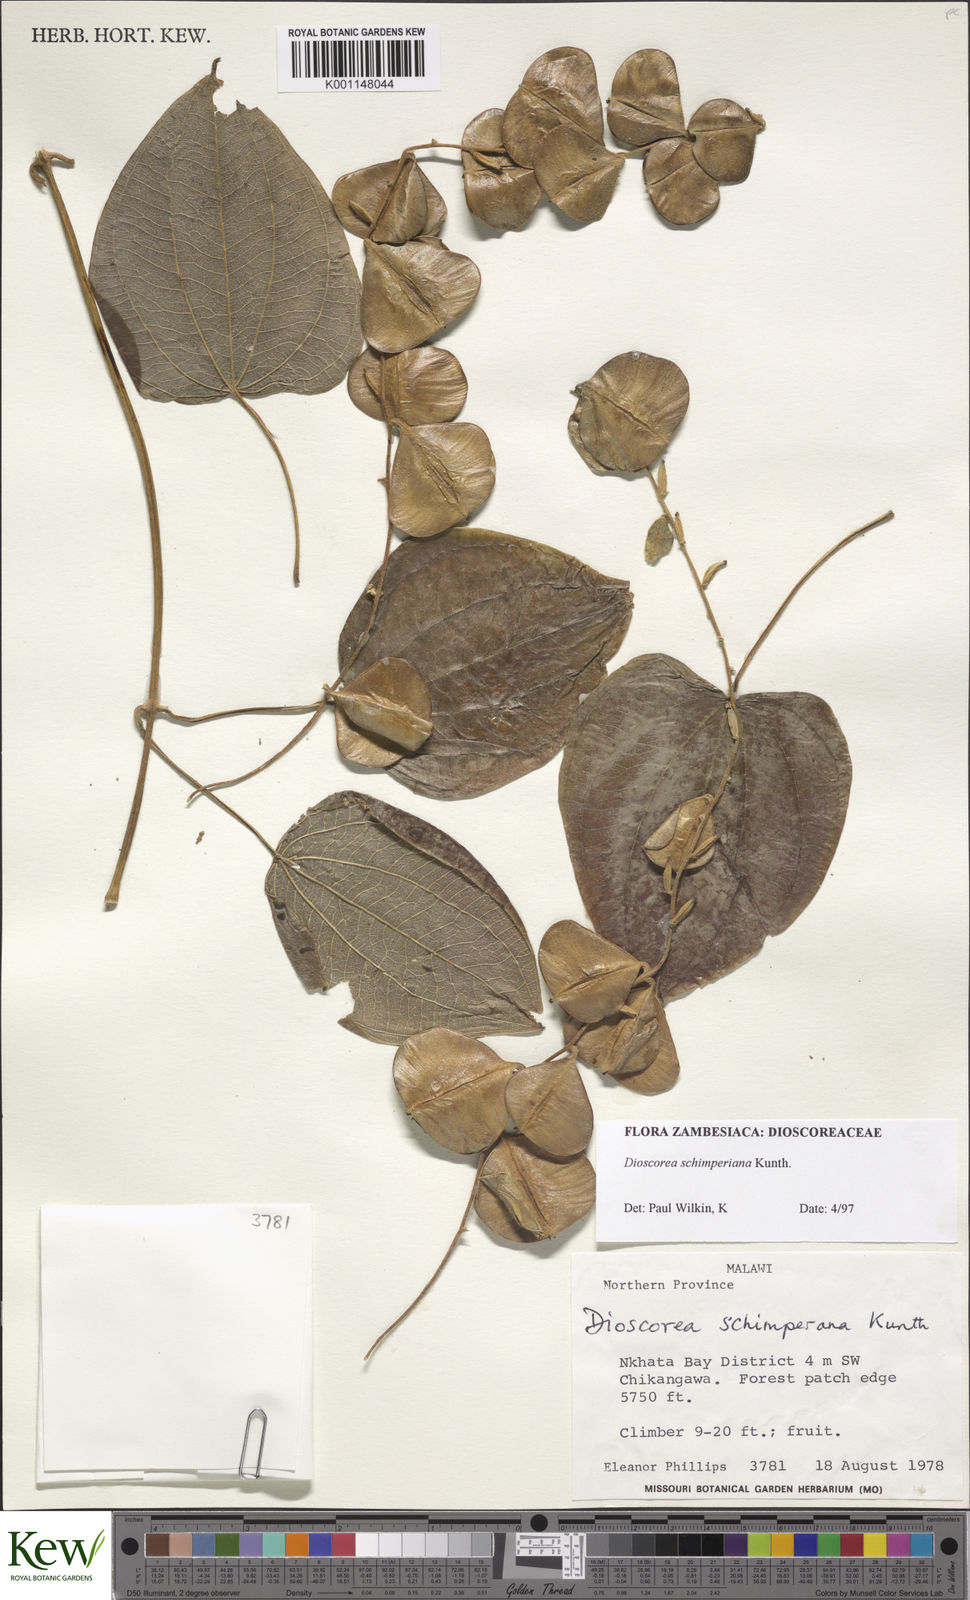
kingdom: Plantae
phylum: Tracheophyta
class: Liliopsida
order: Dioscoreales
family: Dioscoreaceae
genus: Dioscorea
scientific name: Dioscorea schimperiana
